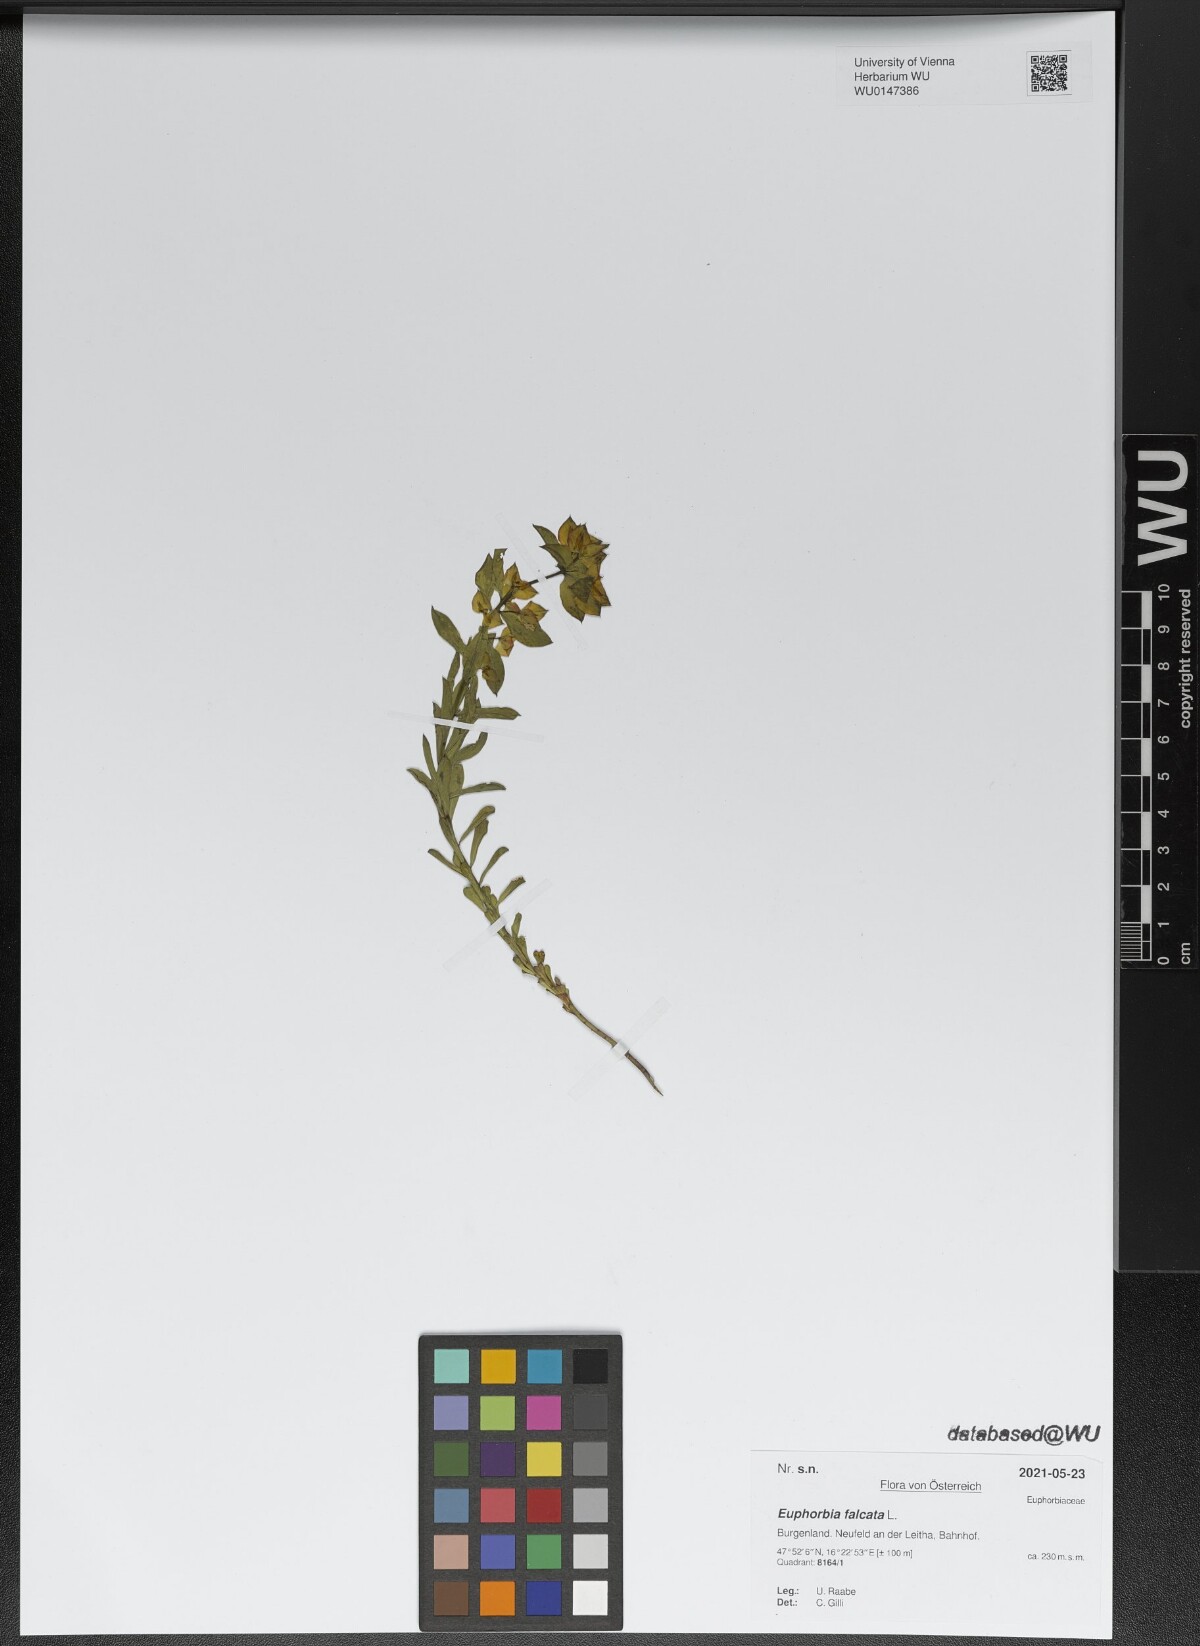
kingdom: Plantae
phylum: Tracheophyta
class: Magnoliopsida
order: Malpighiales
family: Euphorbiaceae
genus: Euphorbia
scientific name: Euphorbia falcata
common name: Sickle spurge
